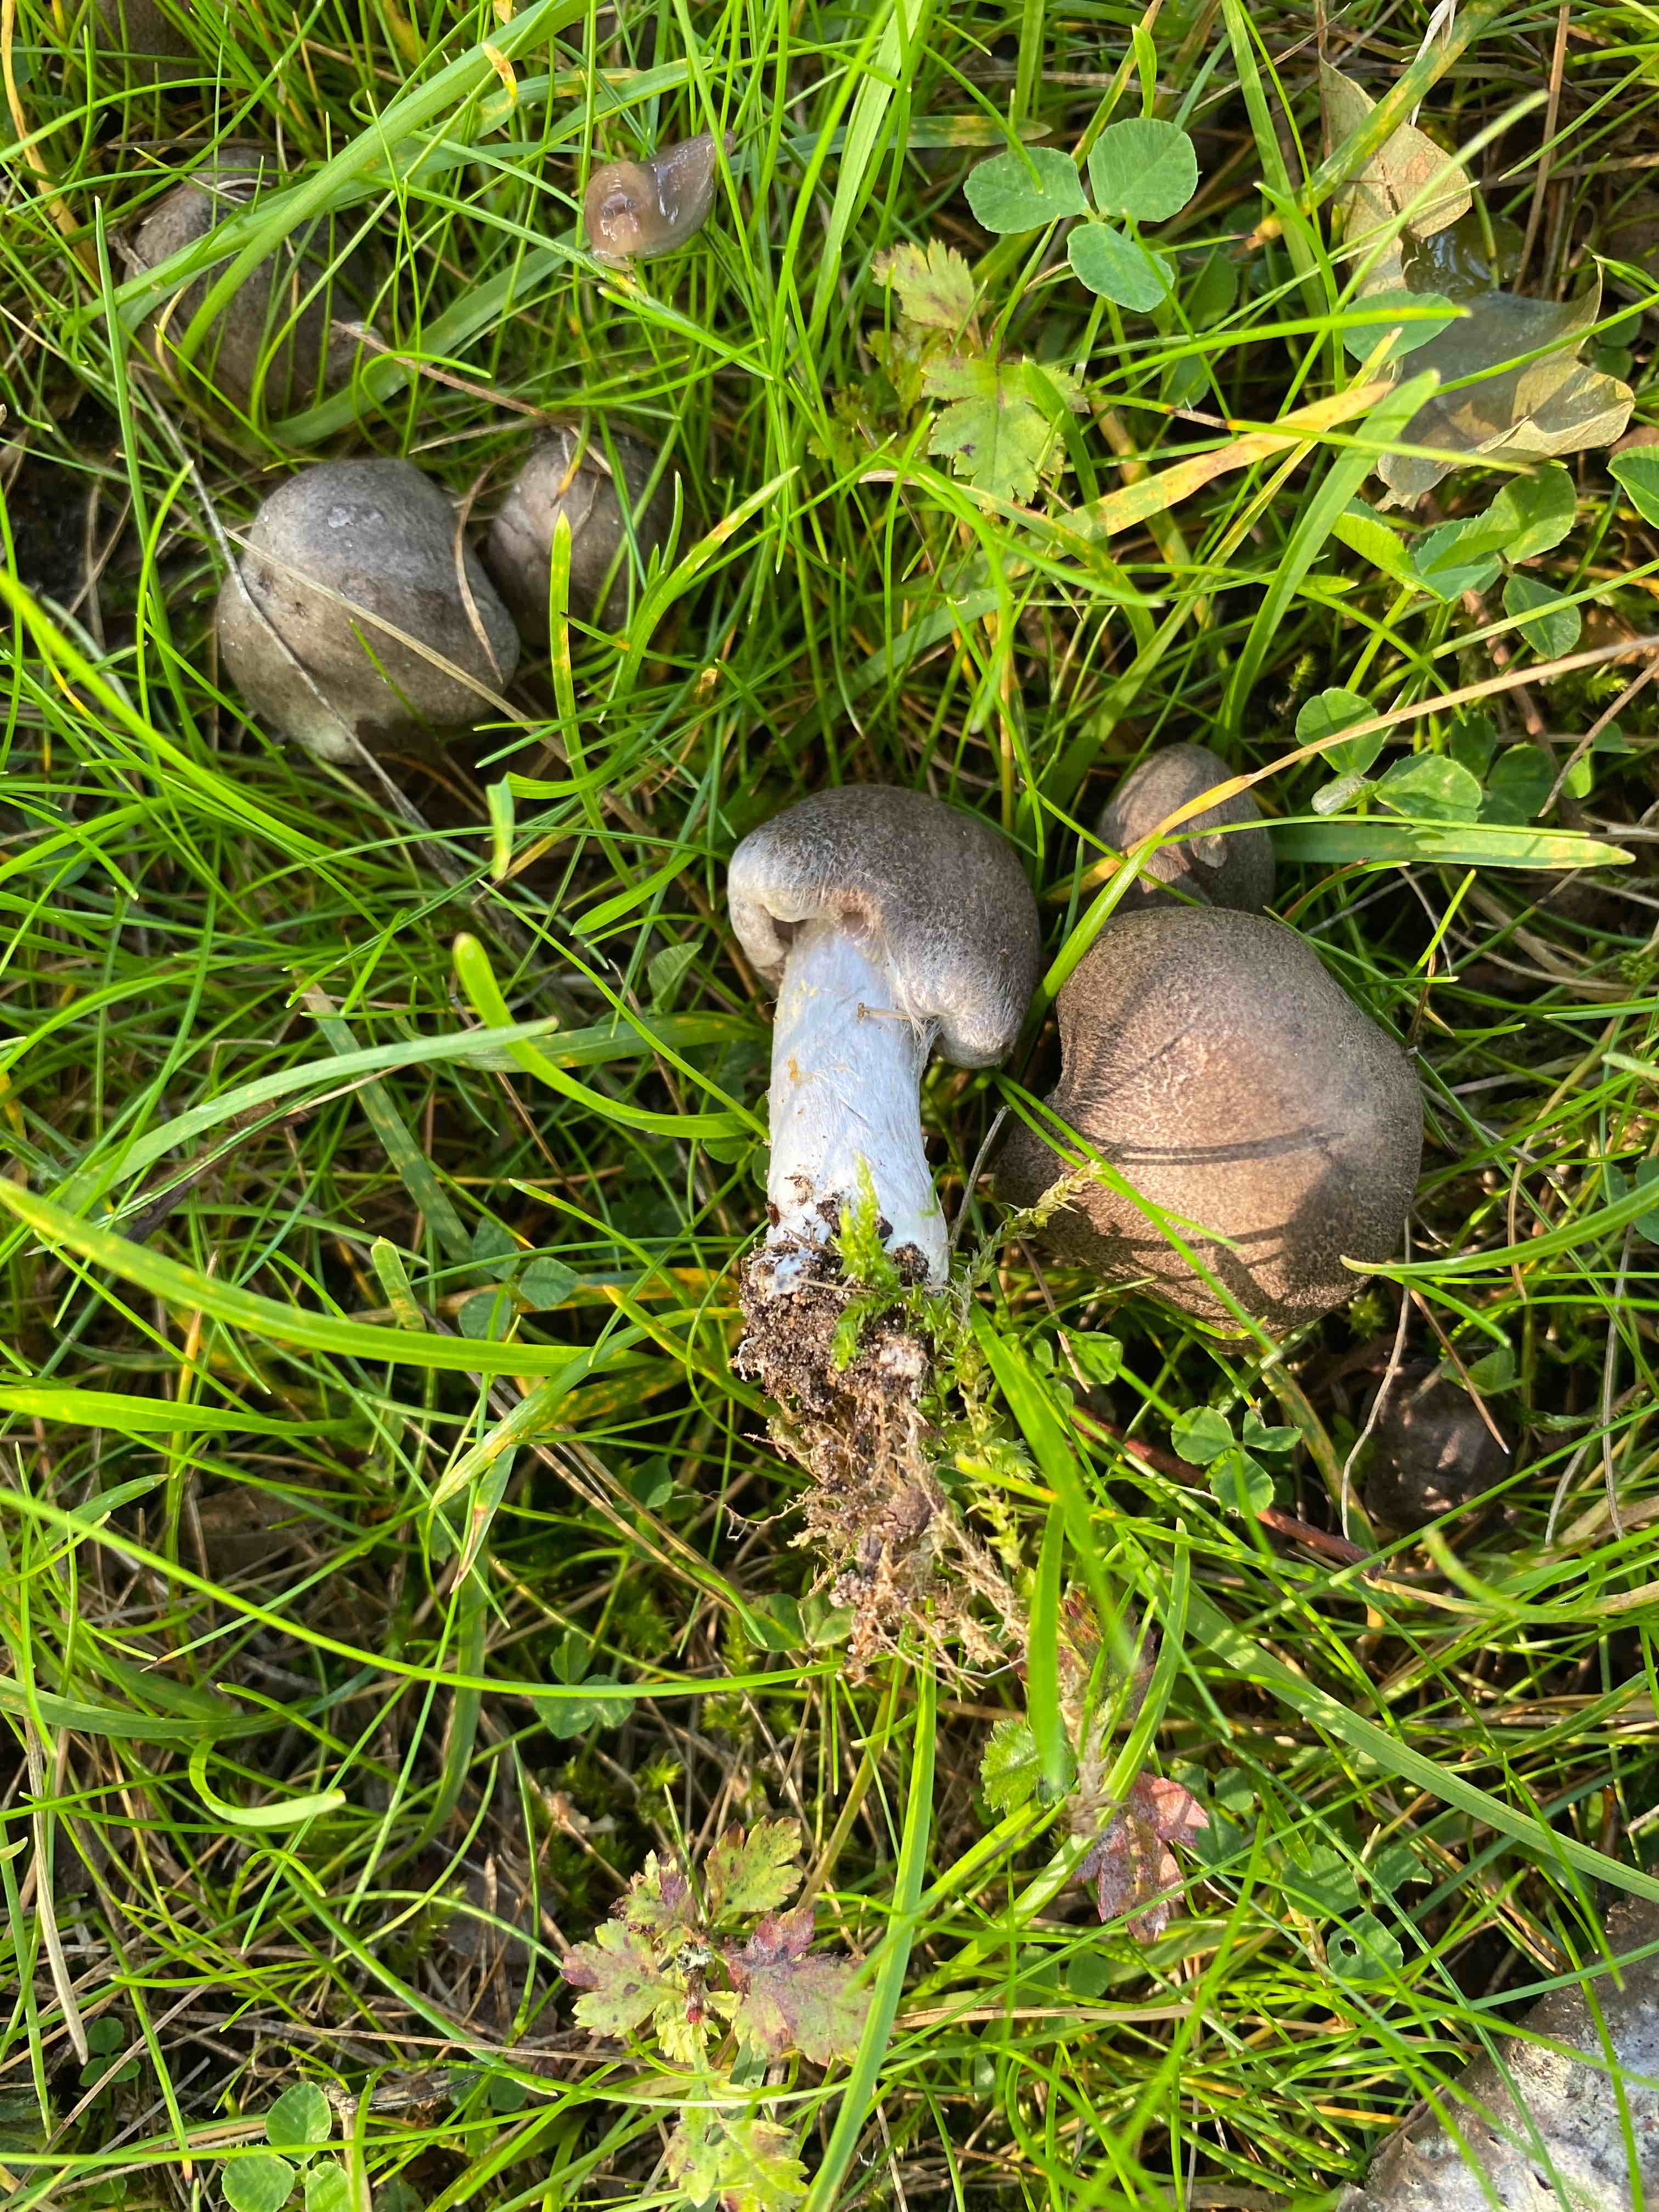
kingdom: Fungi
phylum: Basidiomycota
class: Agaricomycetes
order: Agaricales
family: Tricholomataceae
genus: Tricholoma
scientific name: Tricholoma argyraceum
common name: slør-ridderhat
